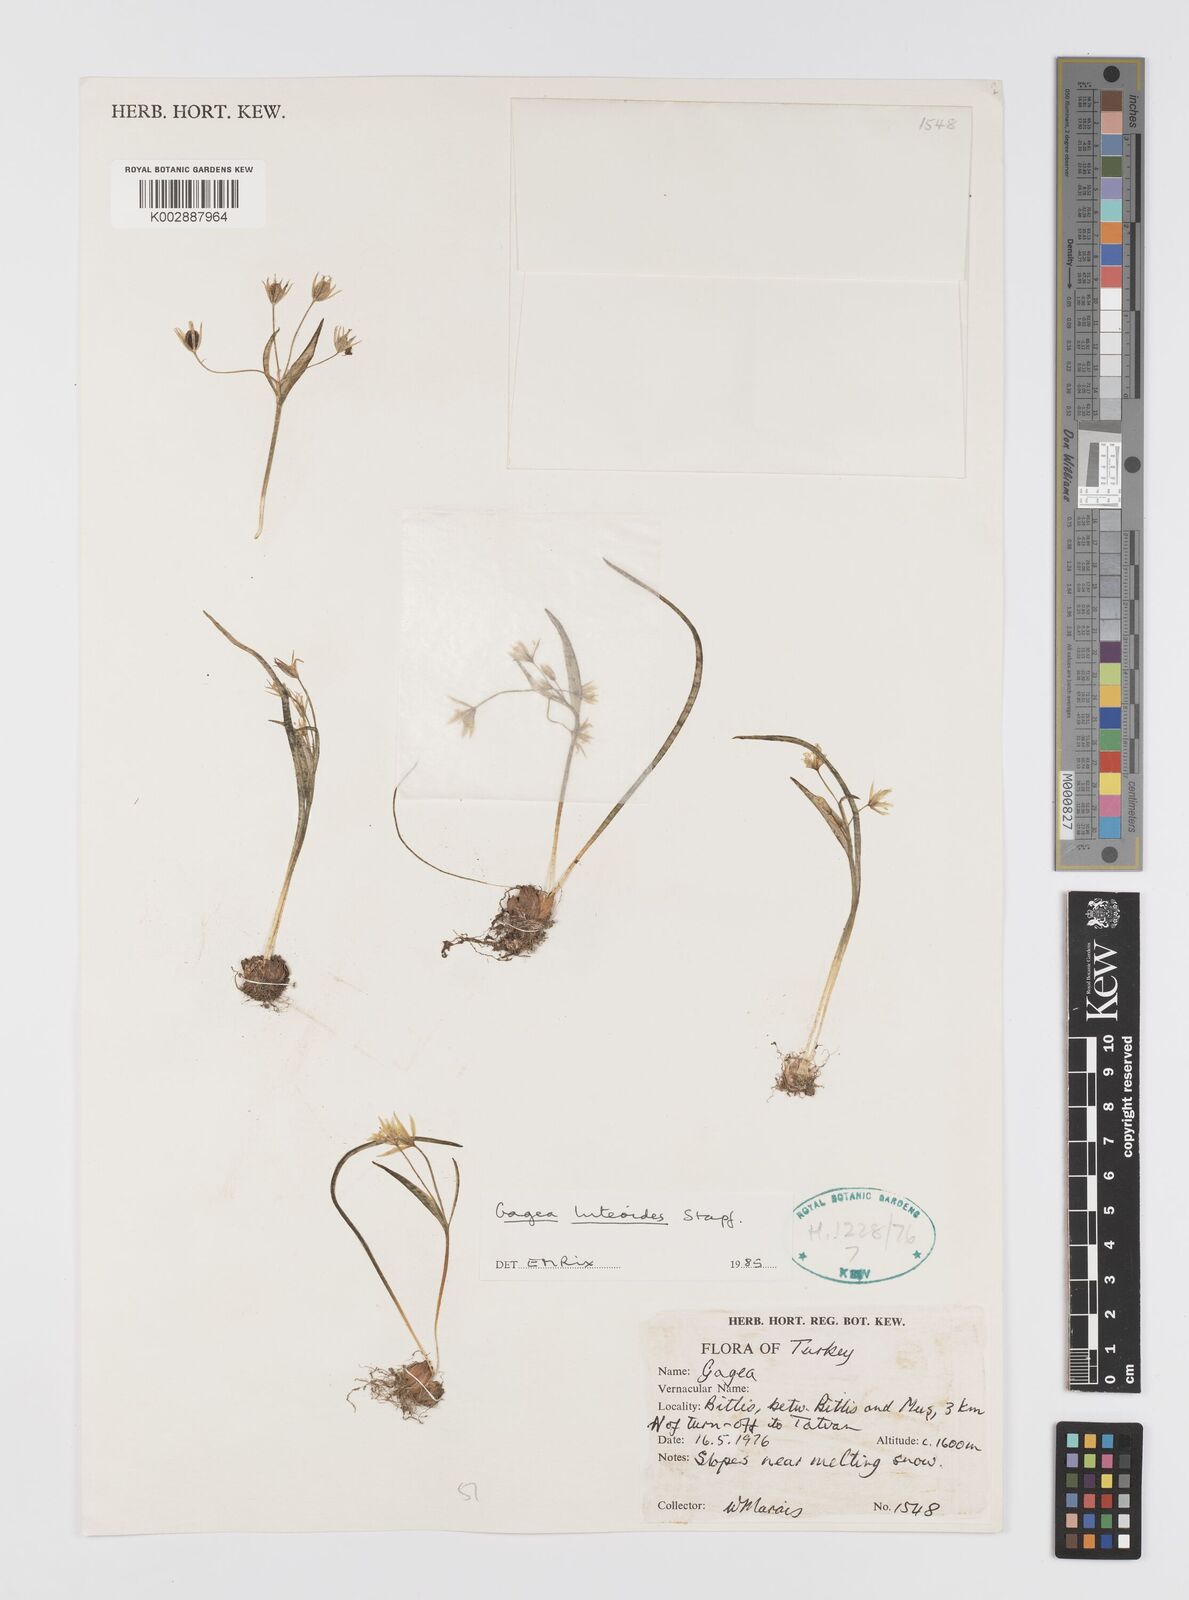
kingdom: Plantae
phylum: Tracheophyta
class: Liliopsida
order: Liliales
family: Liliaceae
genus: Gagea
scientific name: Gagea luteoides
